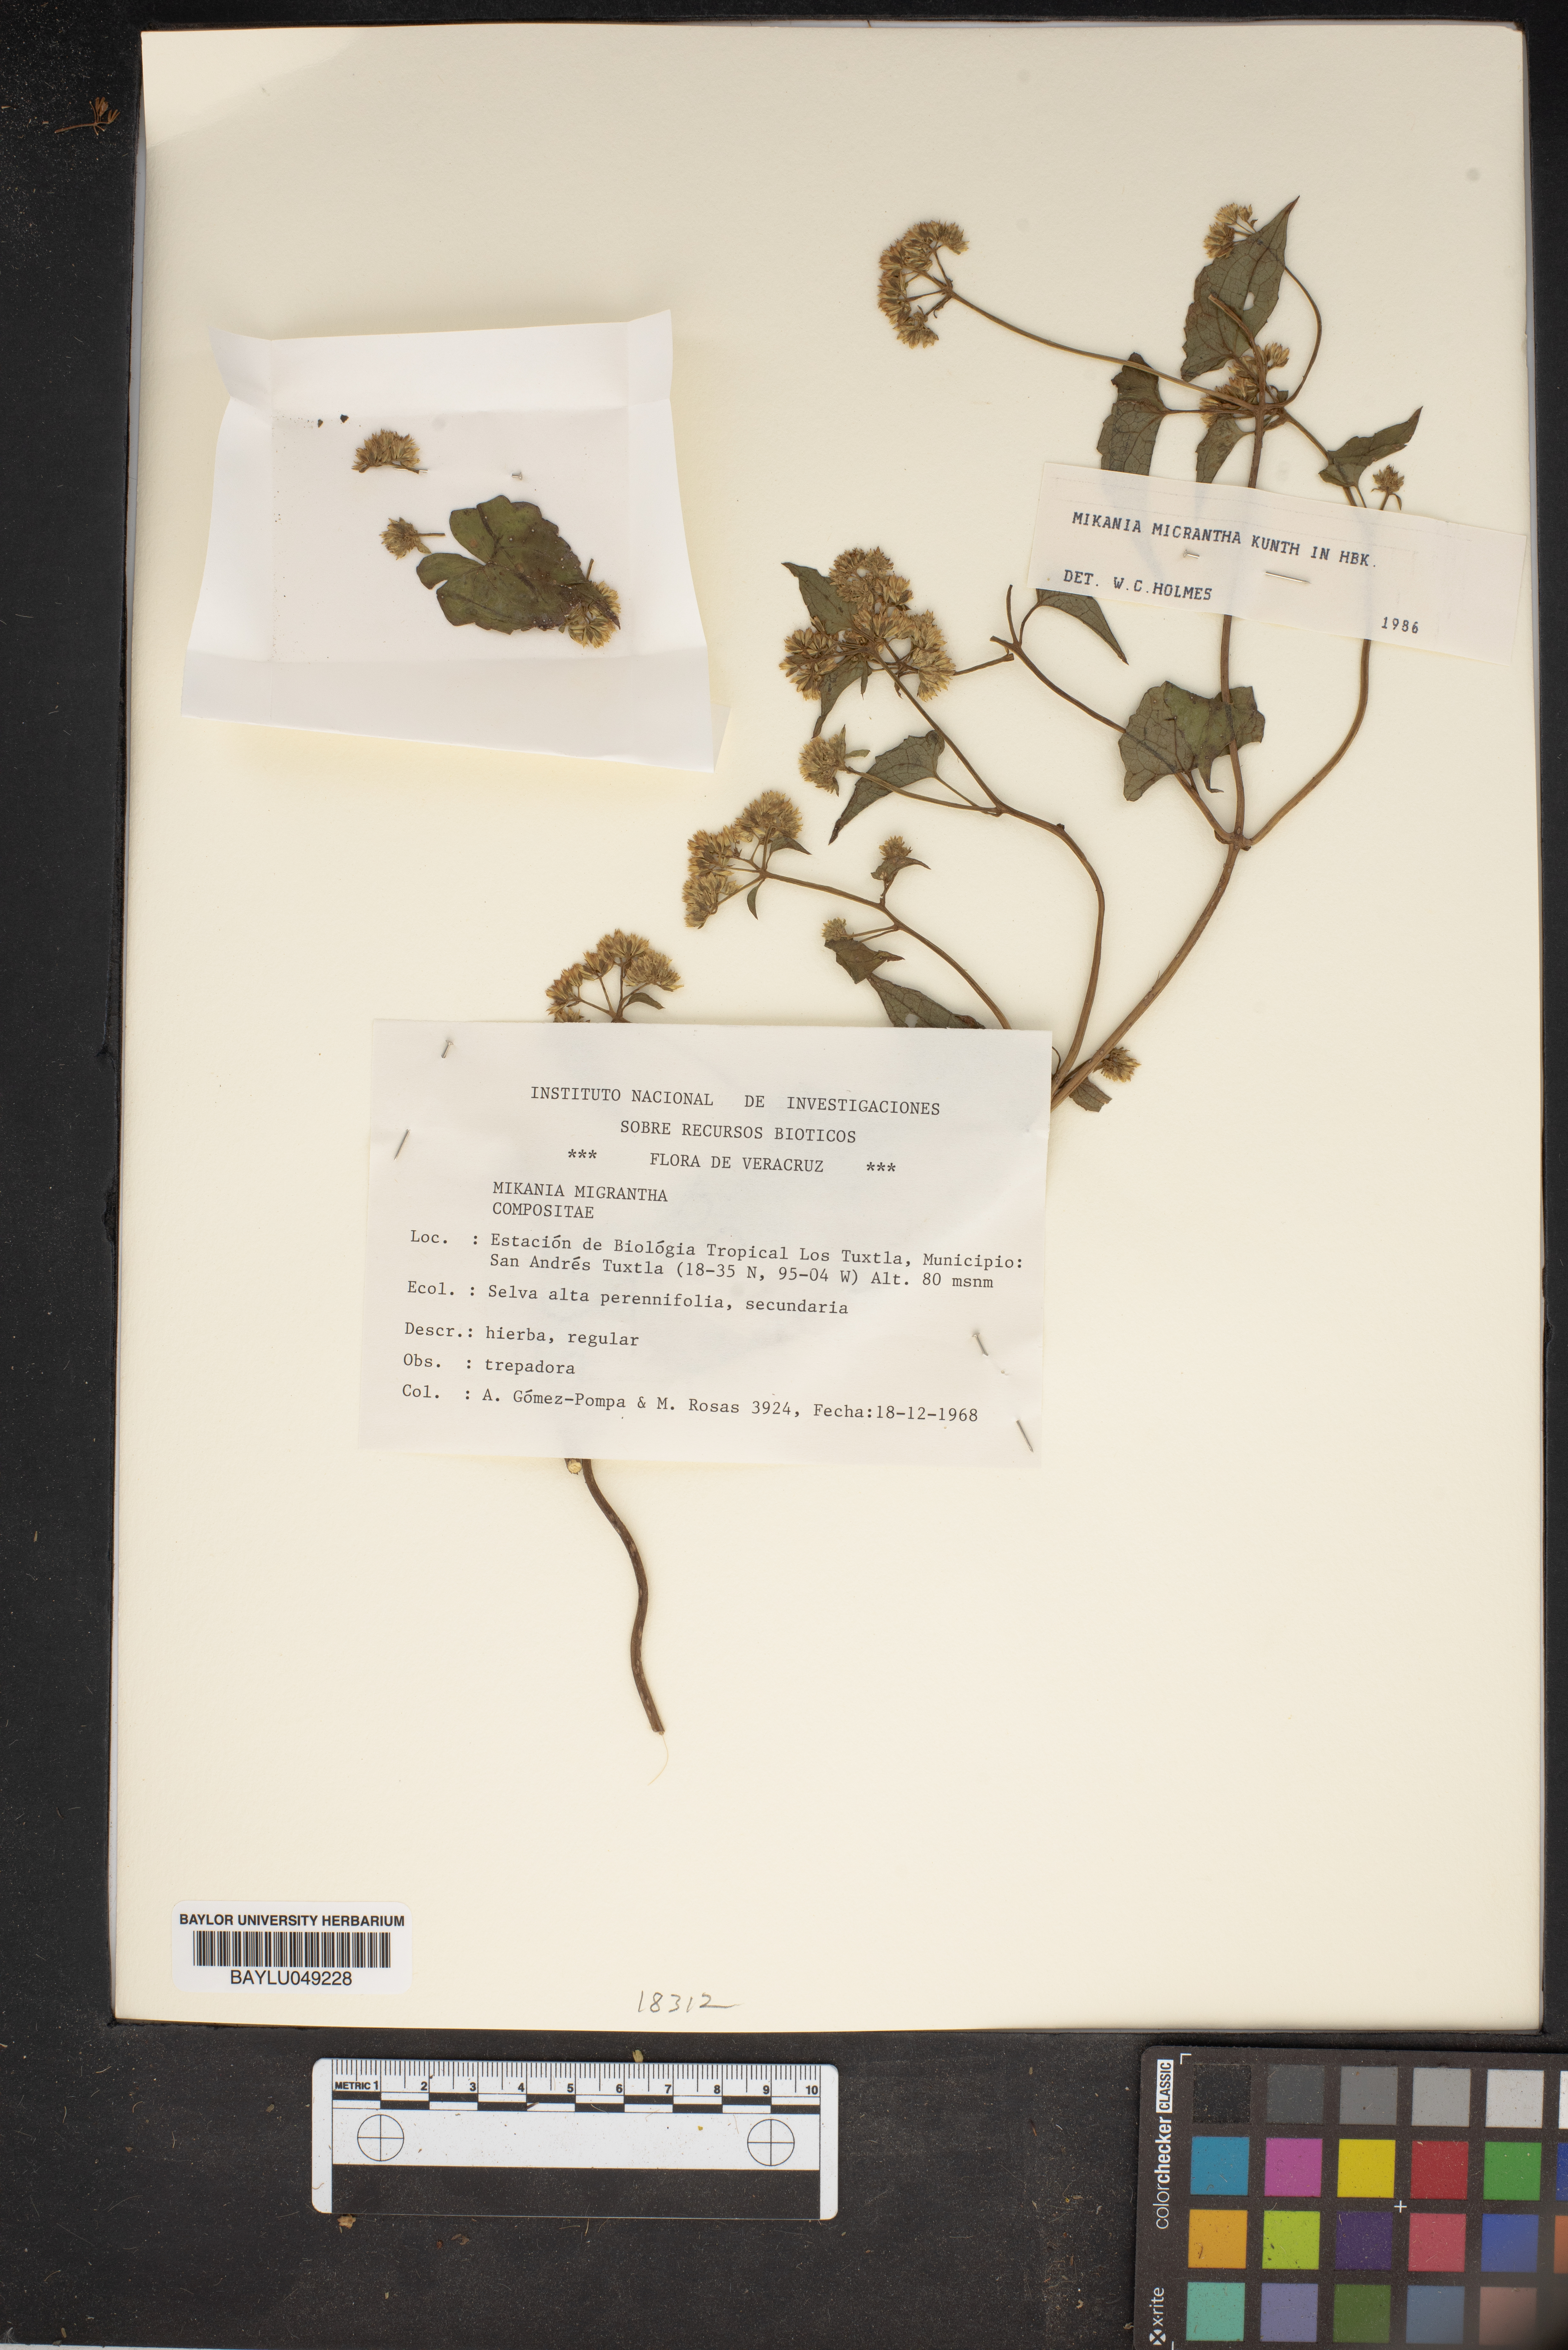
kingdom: Plantae
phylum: Tracheophyta
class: Magnoliopsida
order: Asterales
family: Asteraceae
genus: Mikania
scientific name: Mikania micrantha
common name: Mile-a-minute
